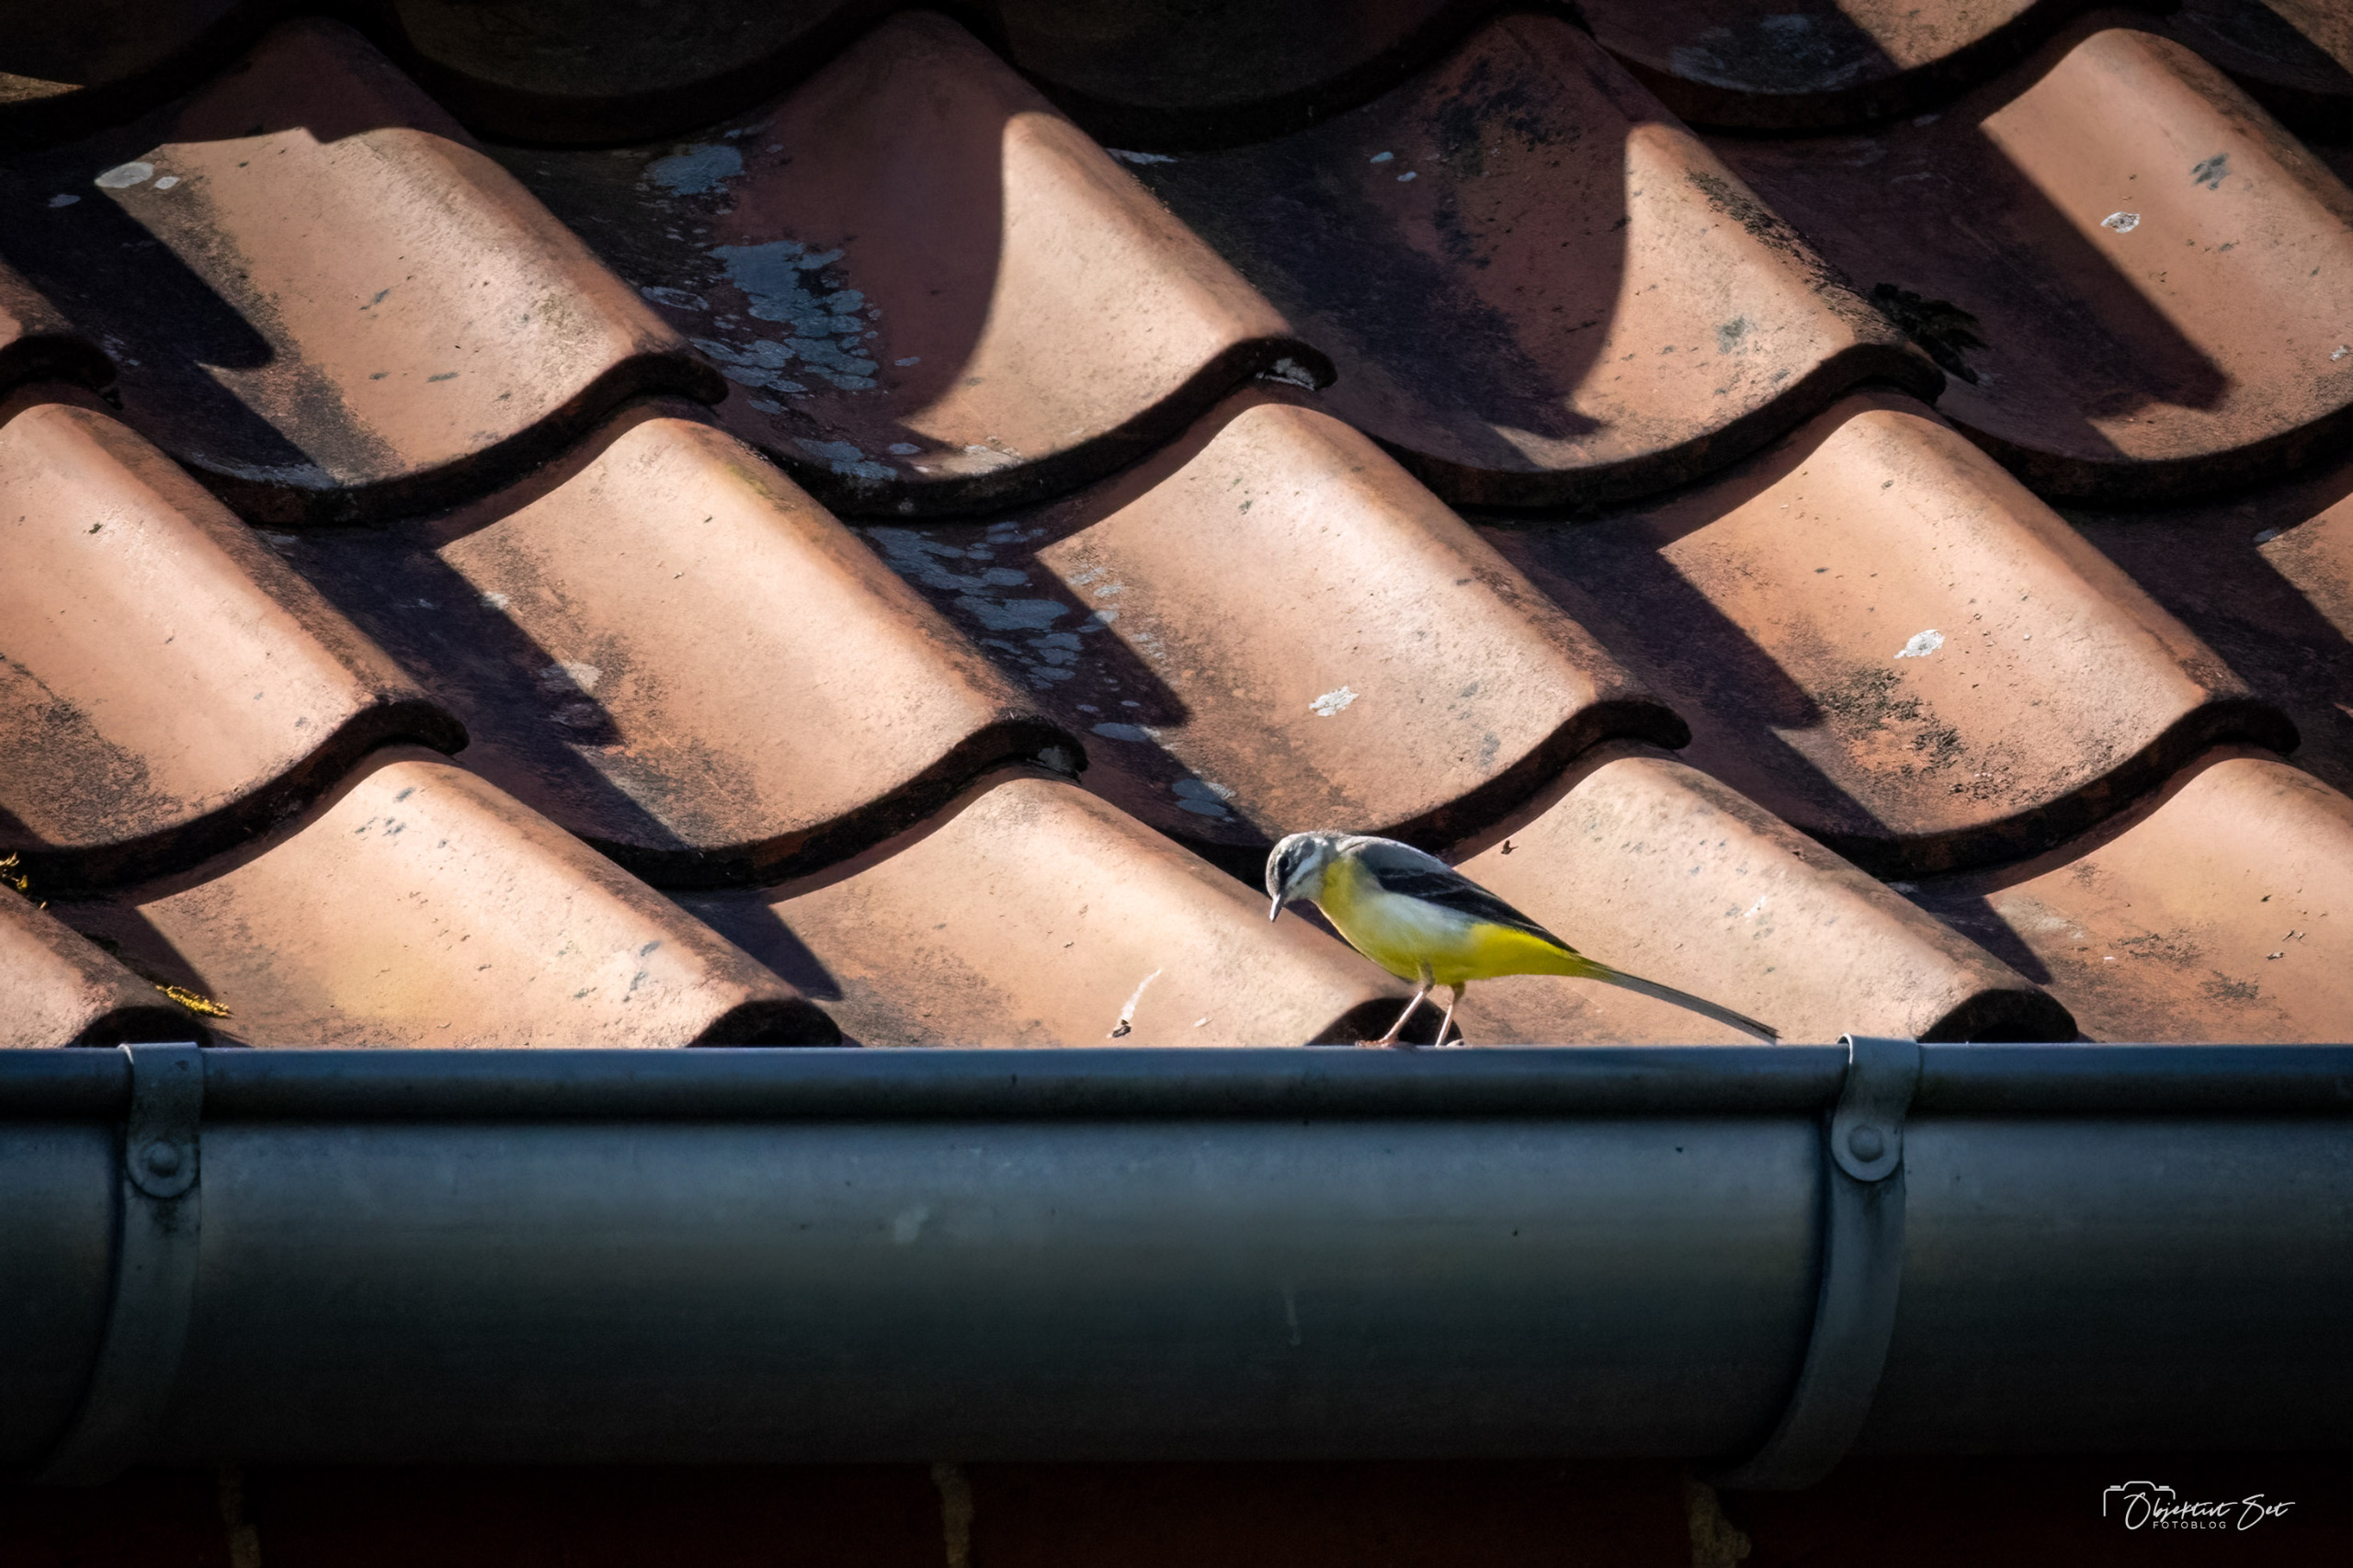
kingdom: Animalia
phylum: Chordata
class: Aves
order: Passeriformes
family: Motacillidae
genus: Motacilla
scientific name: Motacilla cinerea
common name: Bjergvipstjert
